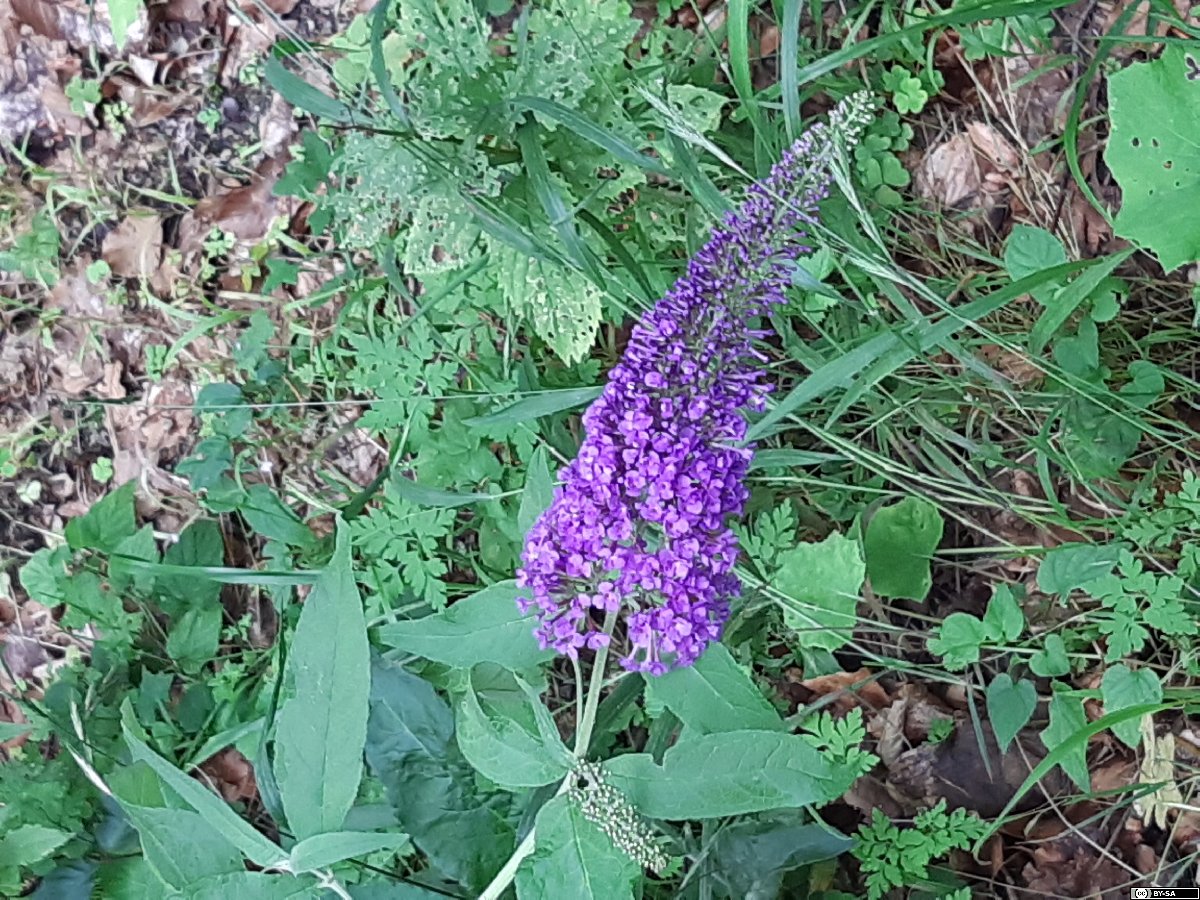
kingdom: Plantae
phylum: Tracheophyta
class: Magnoliopsida
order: Lamiales
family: Scrophulariaceae
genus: Buddleja
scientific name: Buddleja davidii
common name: Butterfly-bush
